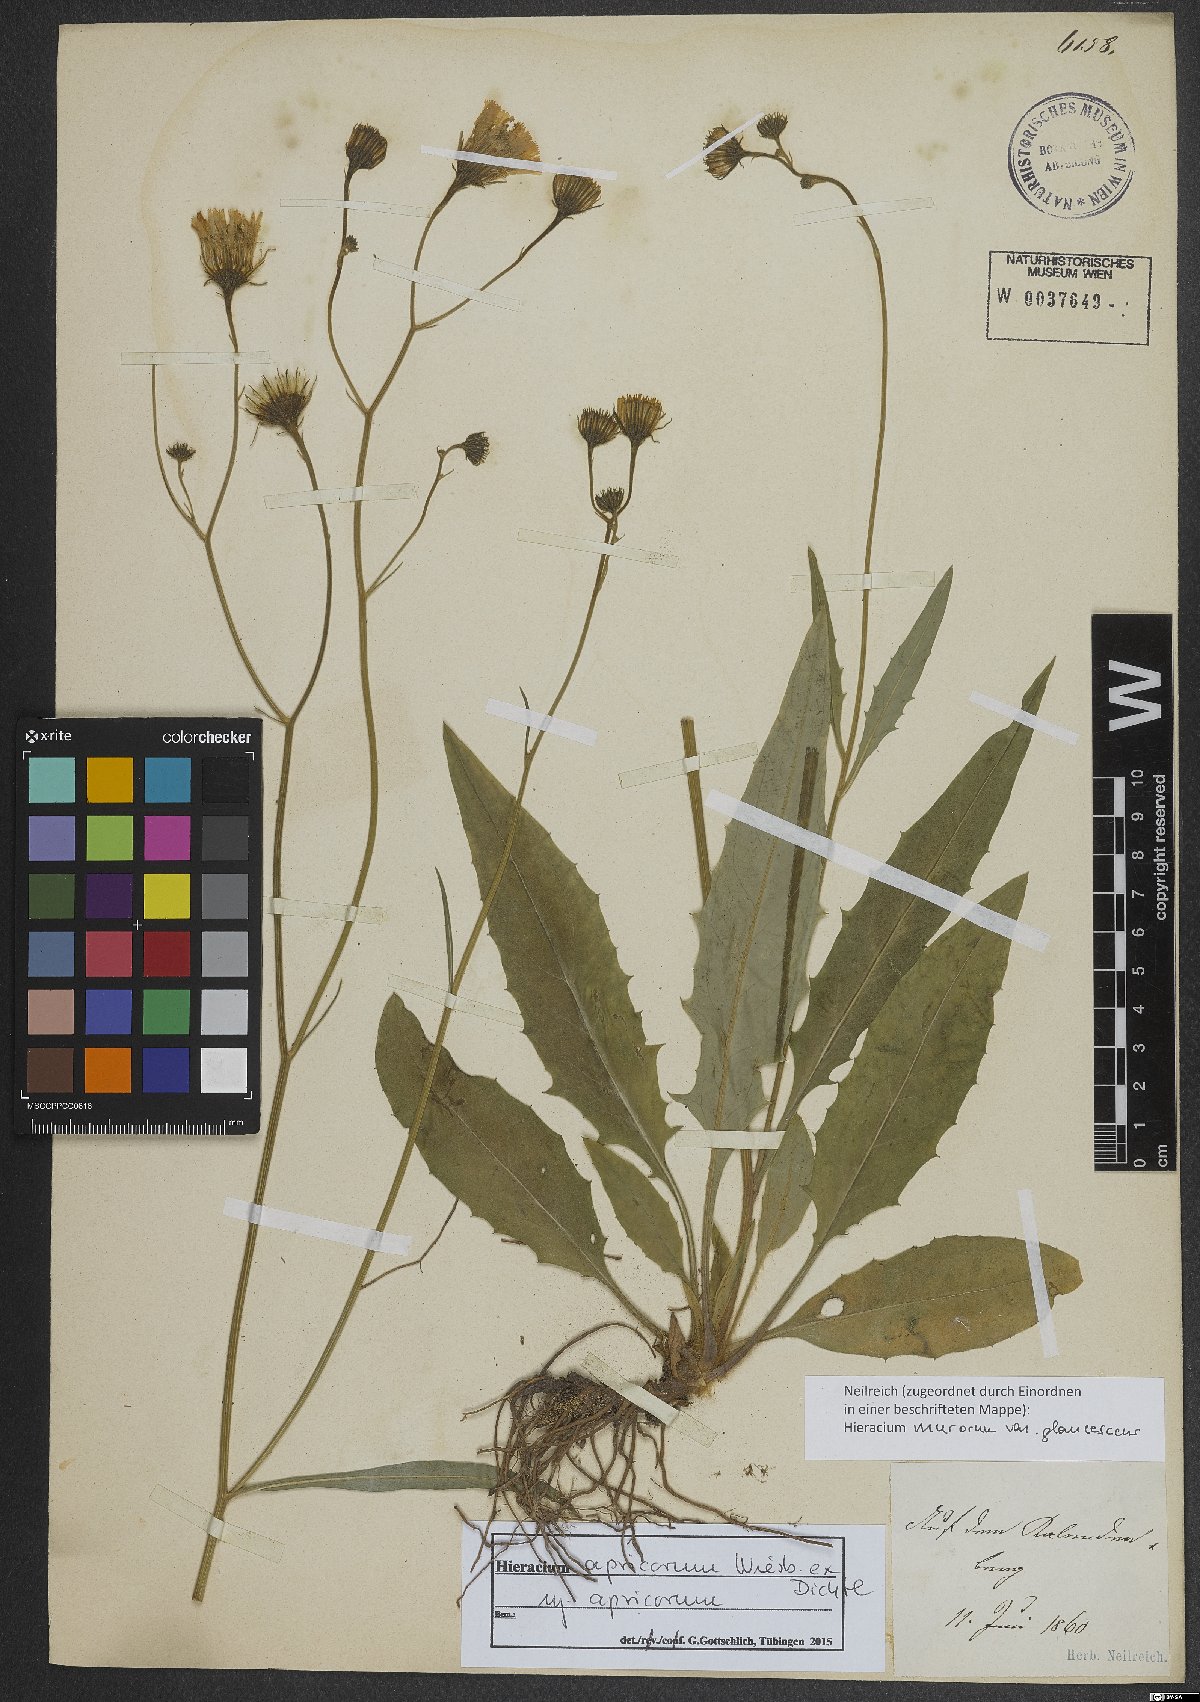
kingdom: Plantae
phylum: Tracheophyta
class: Magnoliopsida
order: Asterales
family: Asteraceae
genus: Hieracium
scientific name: Hieracium apricorum
